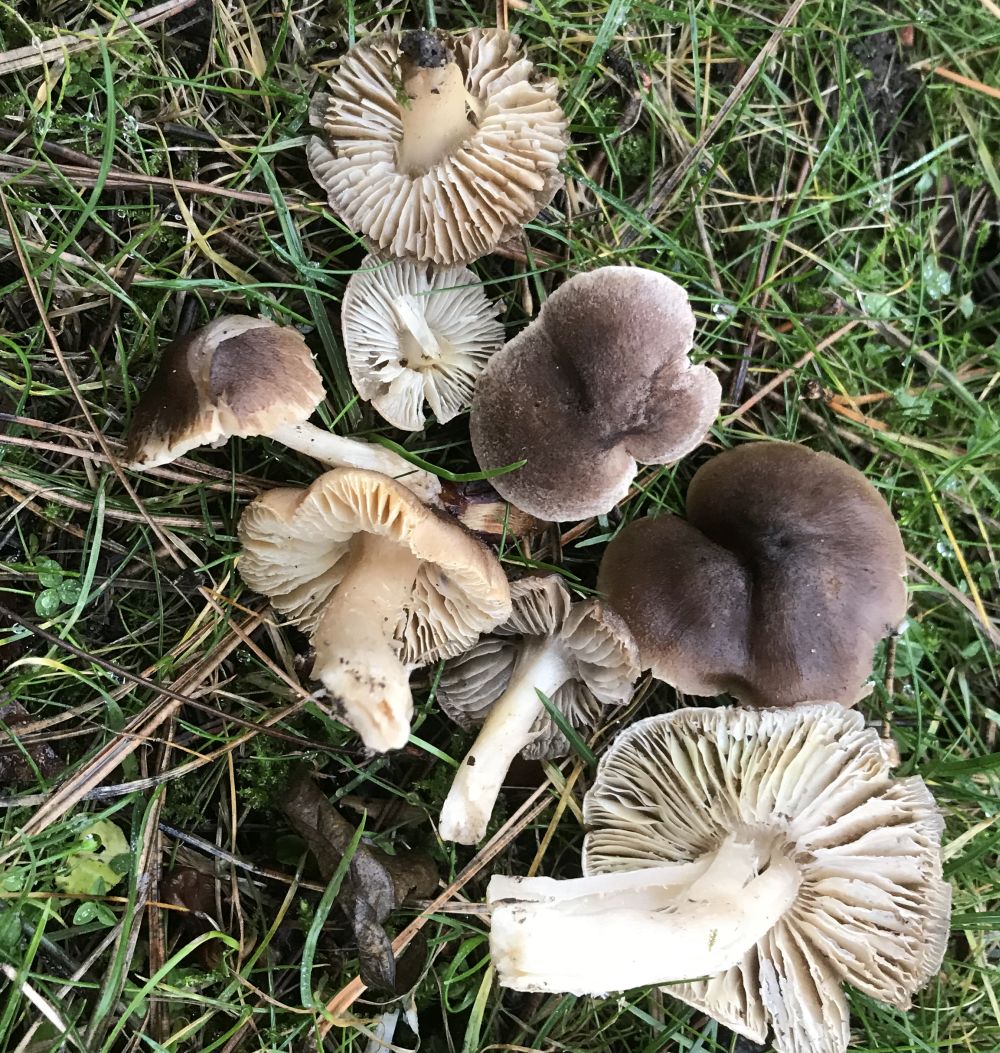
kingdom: Fungi
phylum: Basidiomycota
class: Agaricomycetes
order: Agaricales
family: Tricholomataceae
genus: Tricholoma
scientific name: Tricholoma terreum
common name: jordfarvet ridderhat
